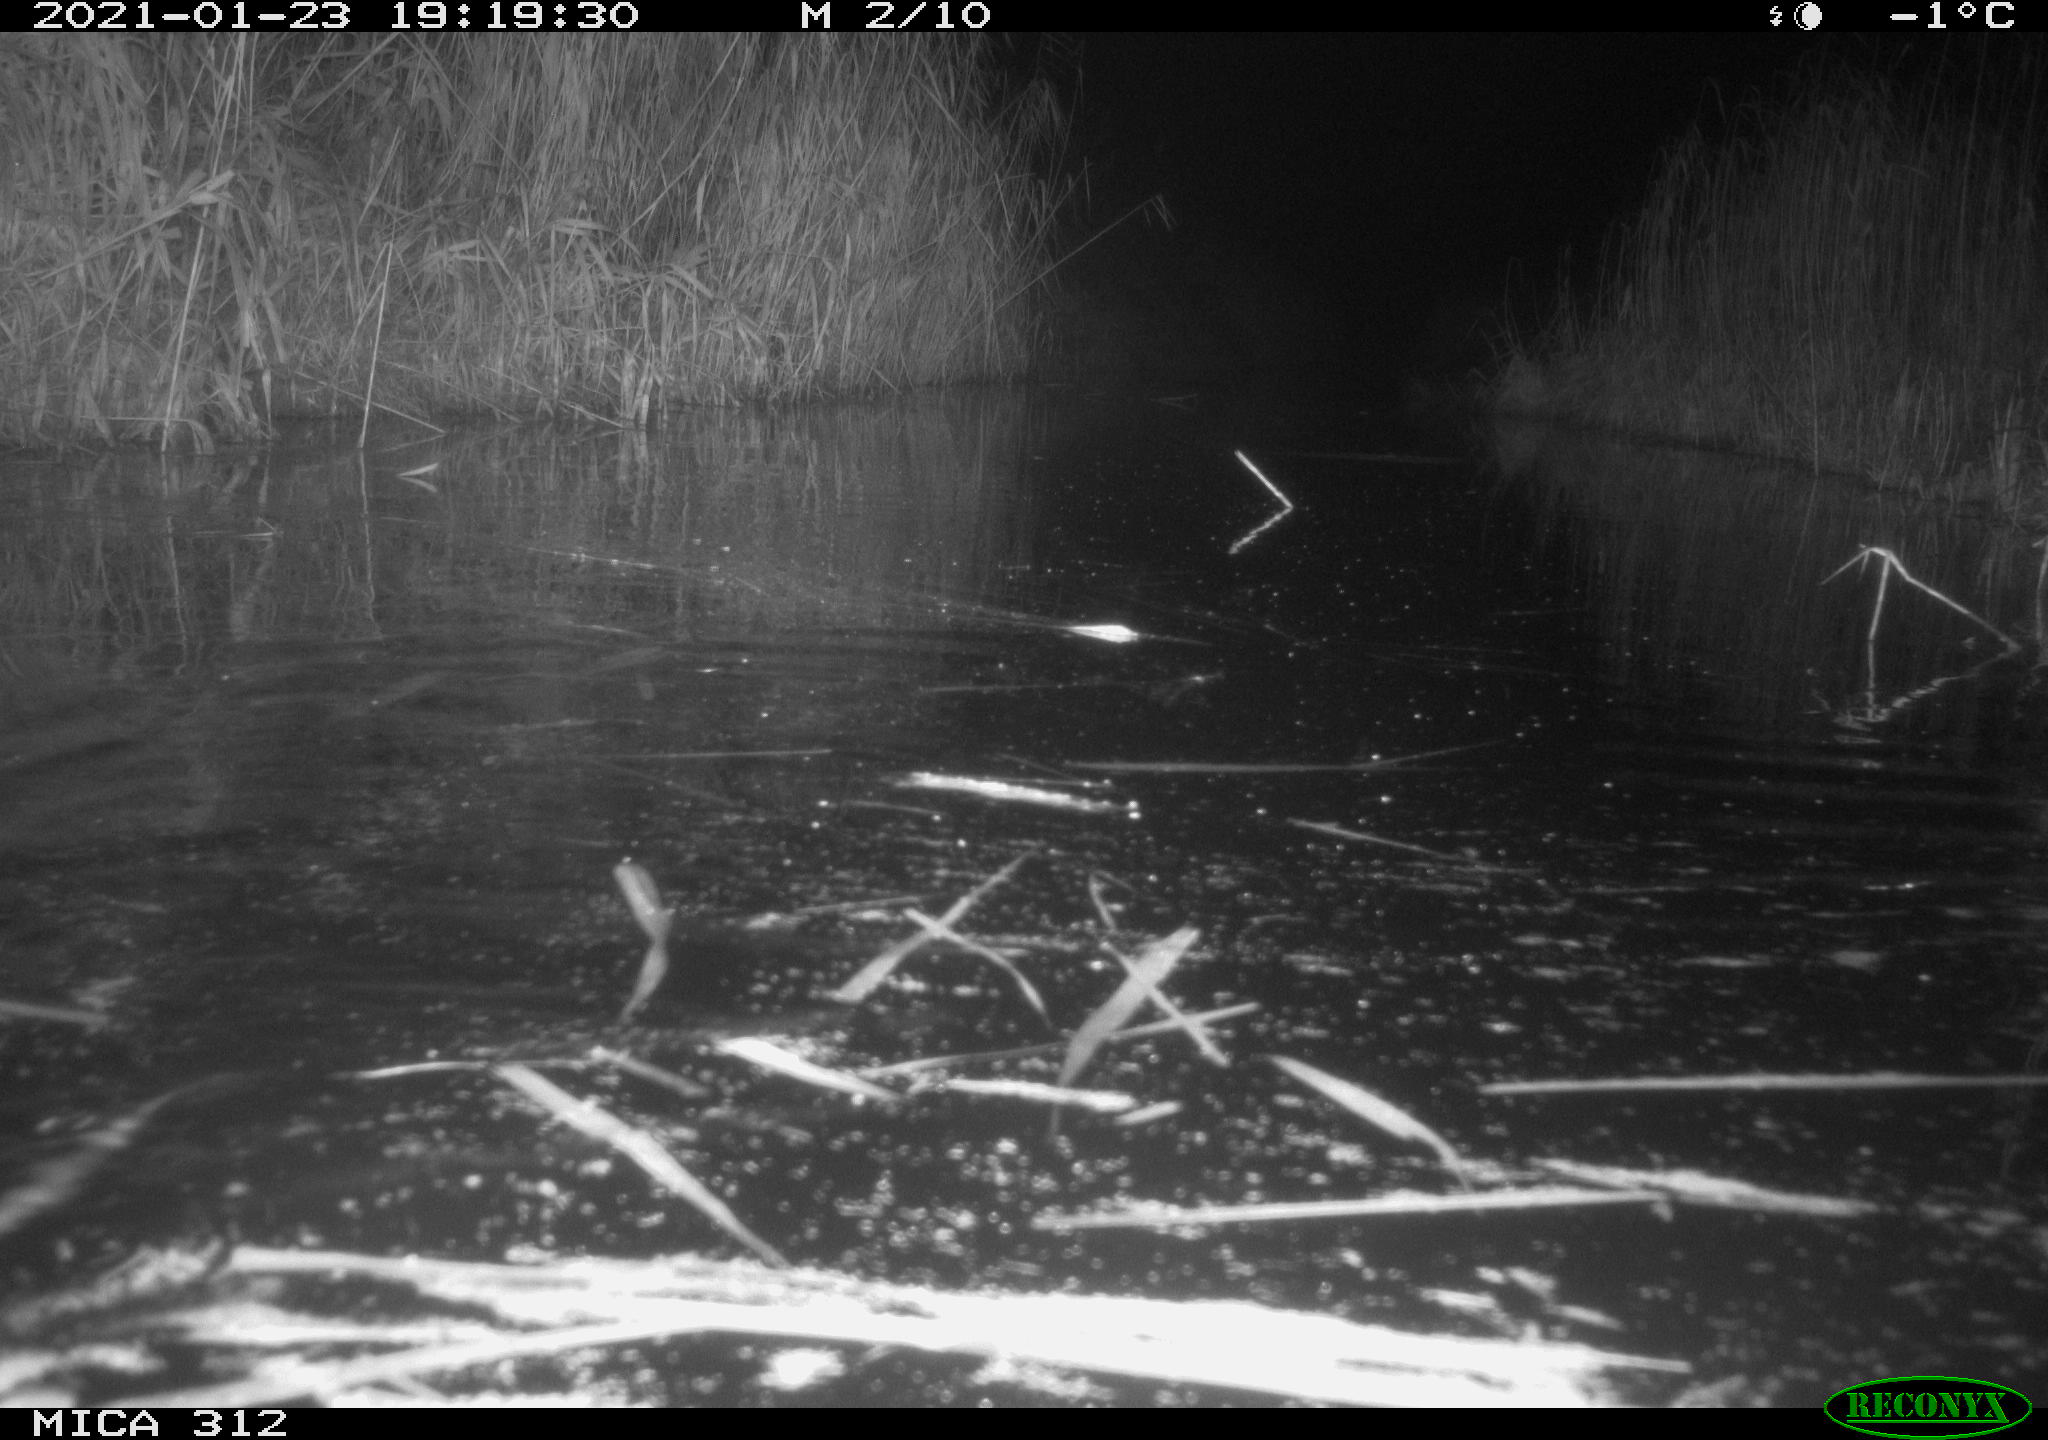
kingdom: Animalia
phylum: Chordata
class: Mammalia
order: Rodentia
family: Muridae
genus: Rattus
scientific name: Rattus norvegicus
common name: Brown rat
